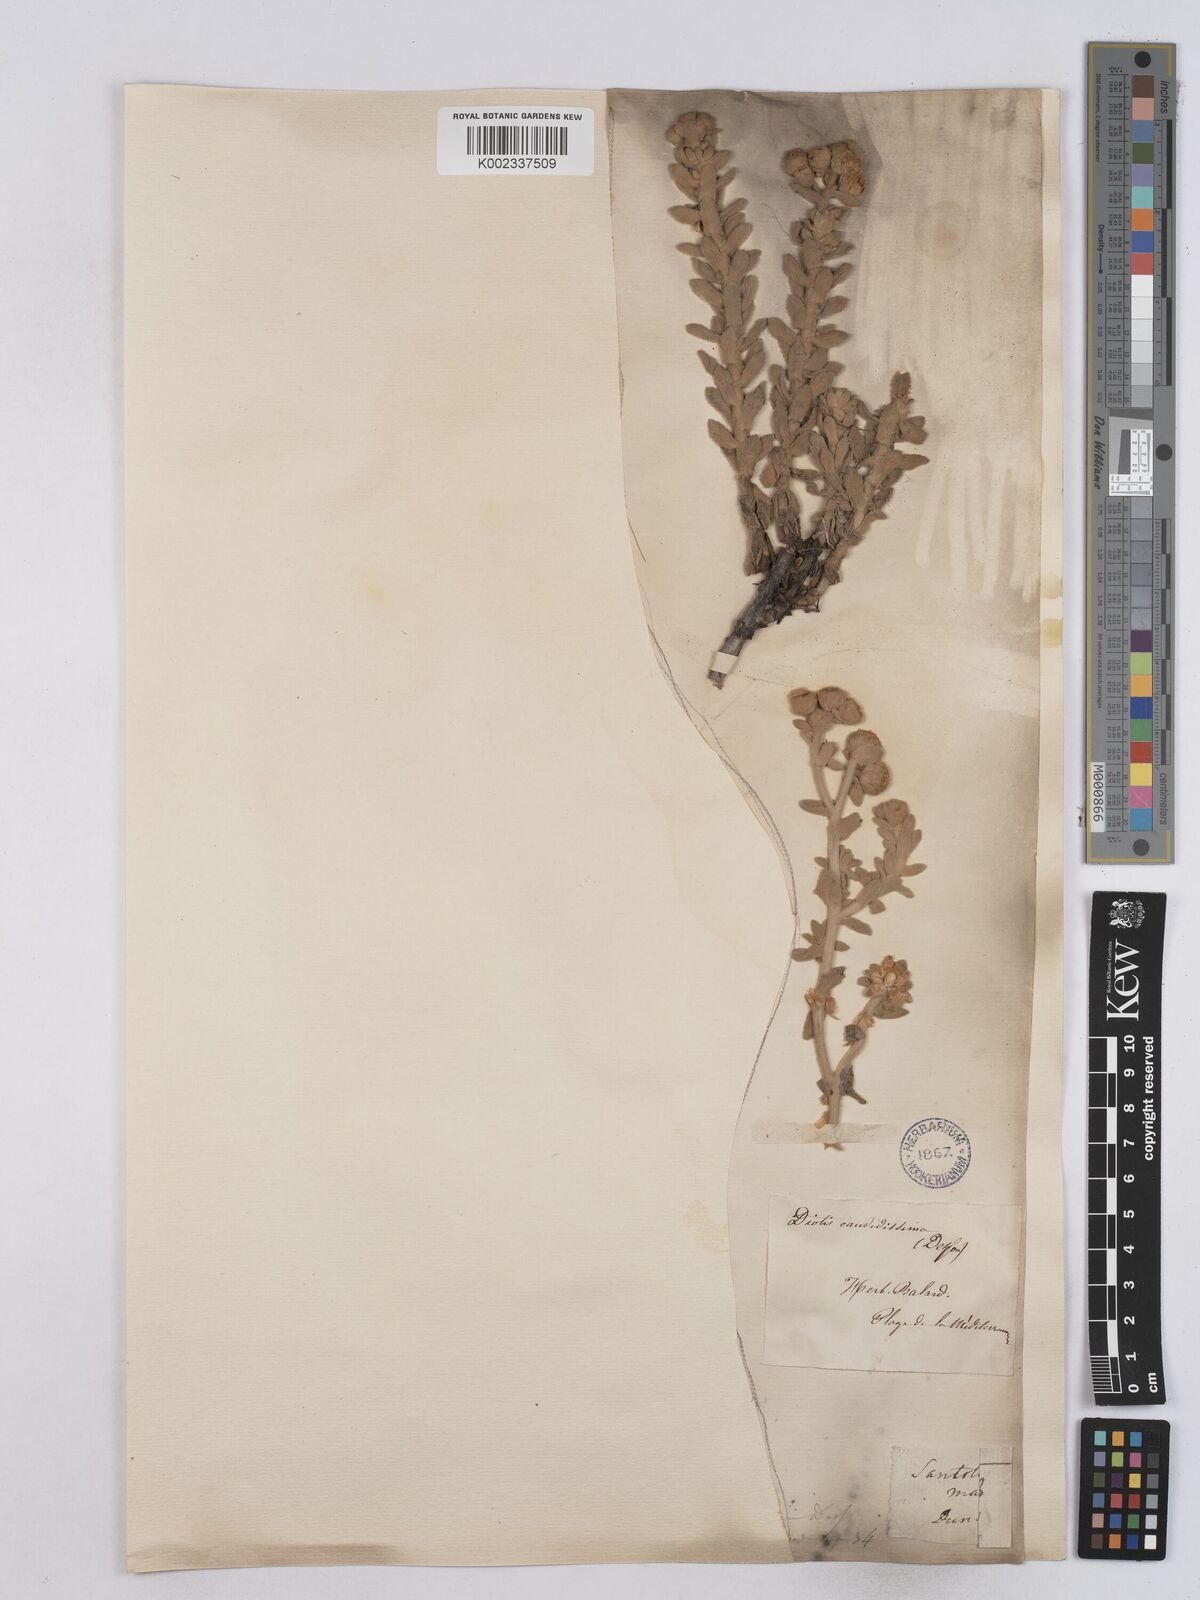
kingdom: Plantae
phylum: Tracheophyta
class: Magnoliopsida
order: Asterales
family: Asteraceae
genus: Achillea
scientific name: Achillea maritima
